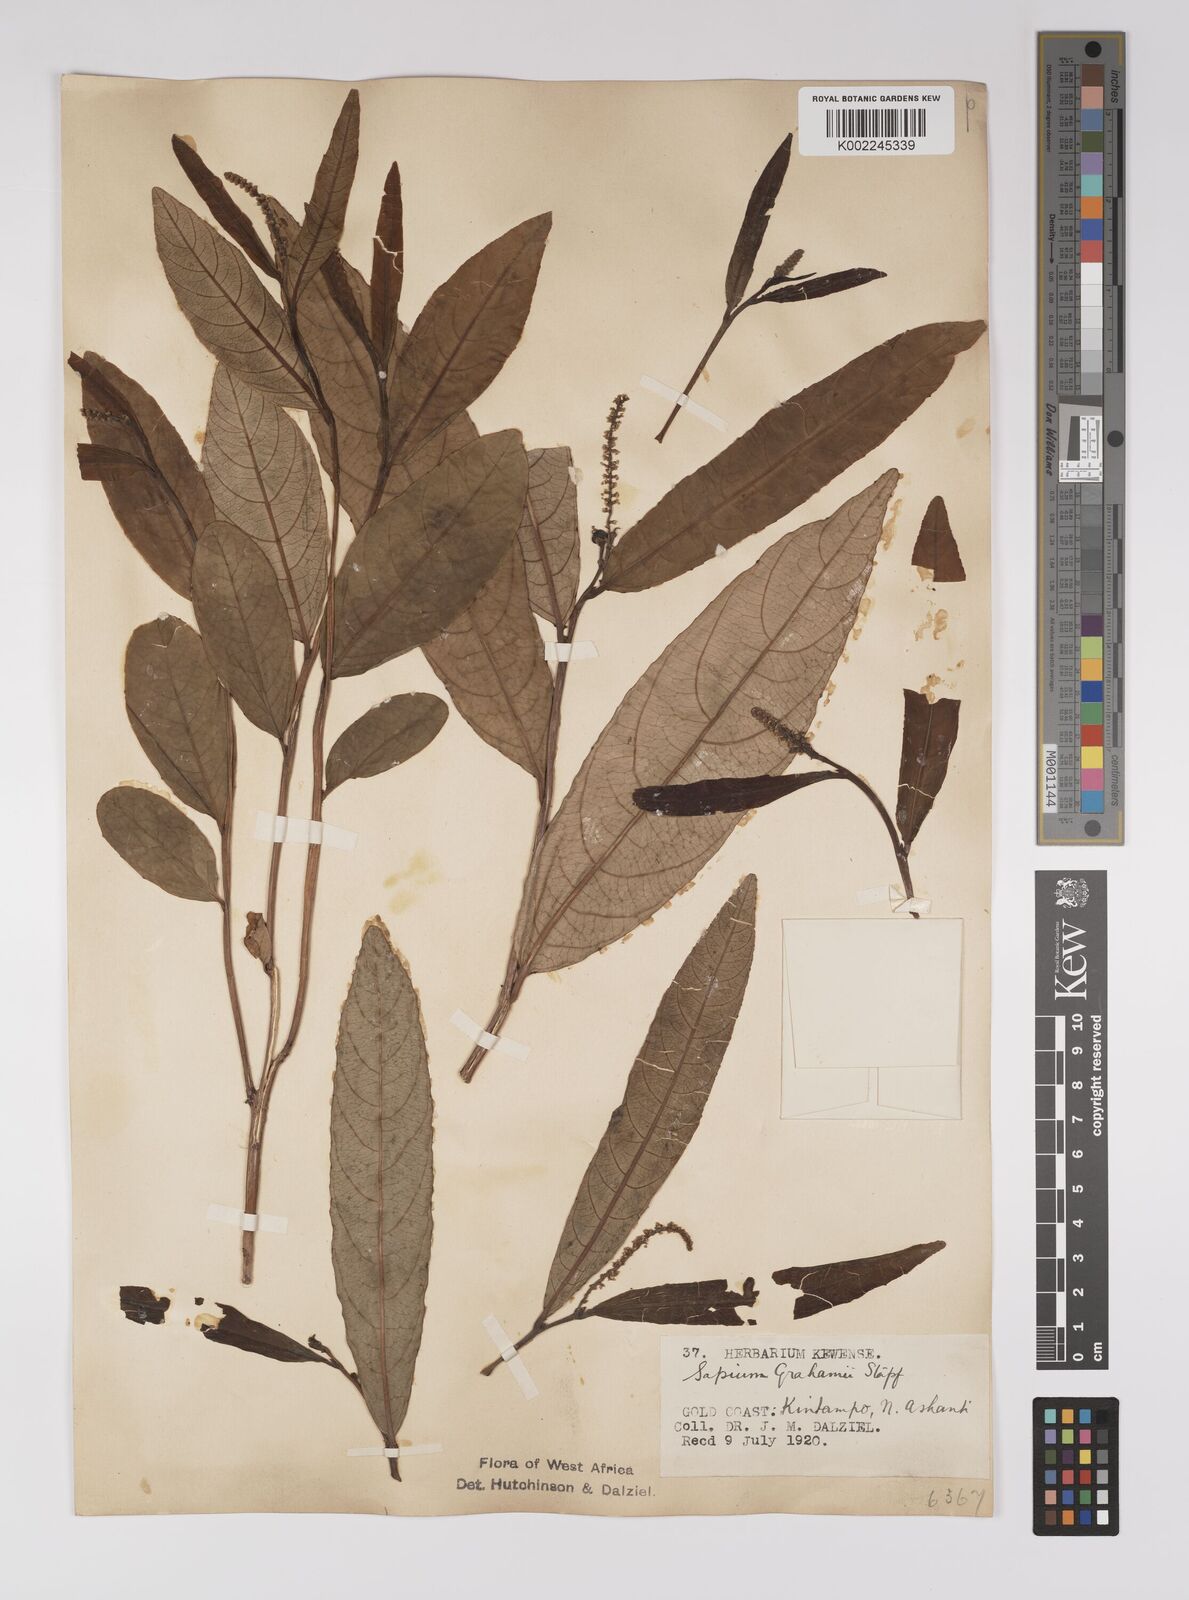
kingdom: Plantae
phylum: Tracheophyta
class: Magnoliopsida
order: Malpighiales
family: Euphorbiaceae
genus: Excoecaria
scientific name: Excoecaria grahamii
